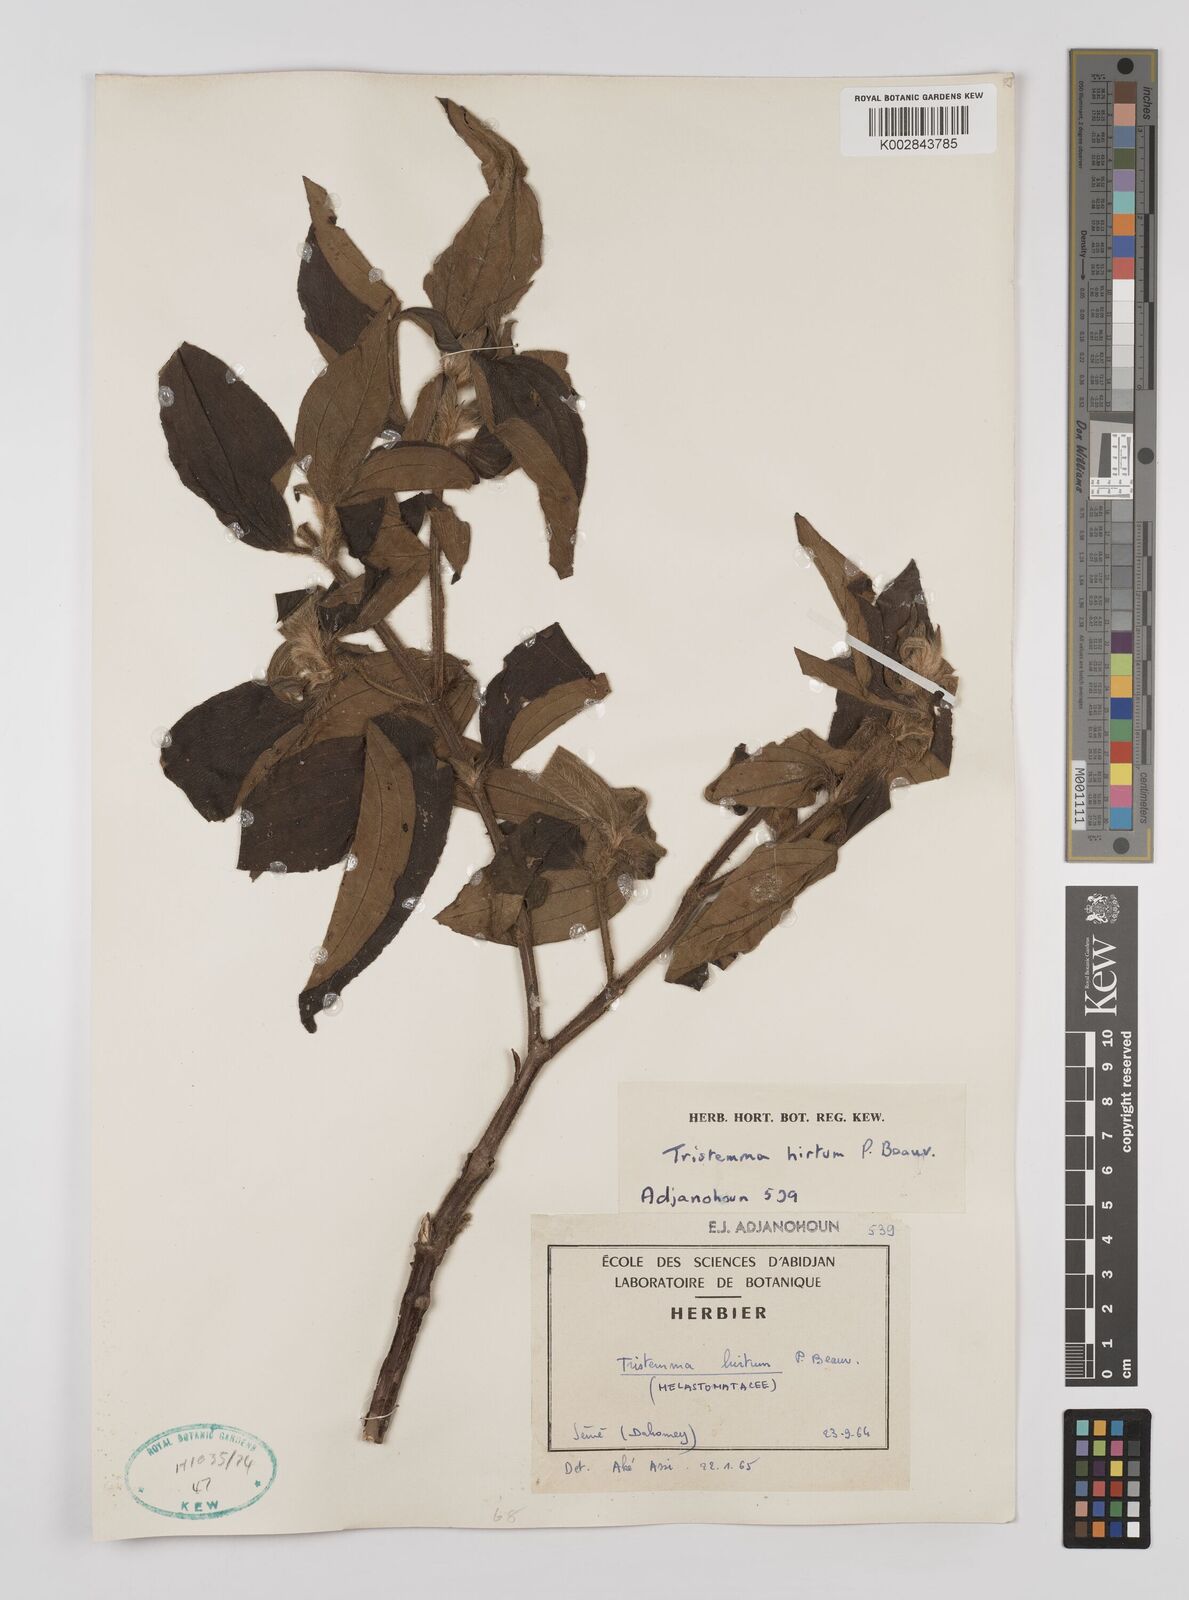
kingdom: Plantae
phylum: Tracheophyta
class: Magnoliopsida
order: Myrtales
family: Melastomataceae
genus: Tristemma
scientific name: Tristemma hirtum
